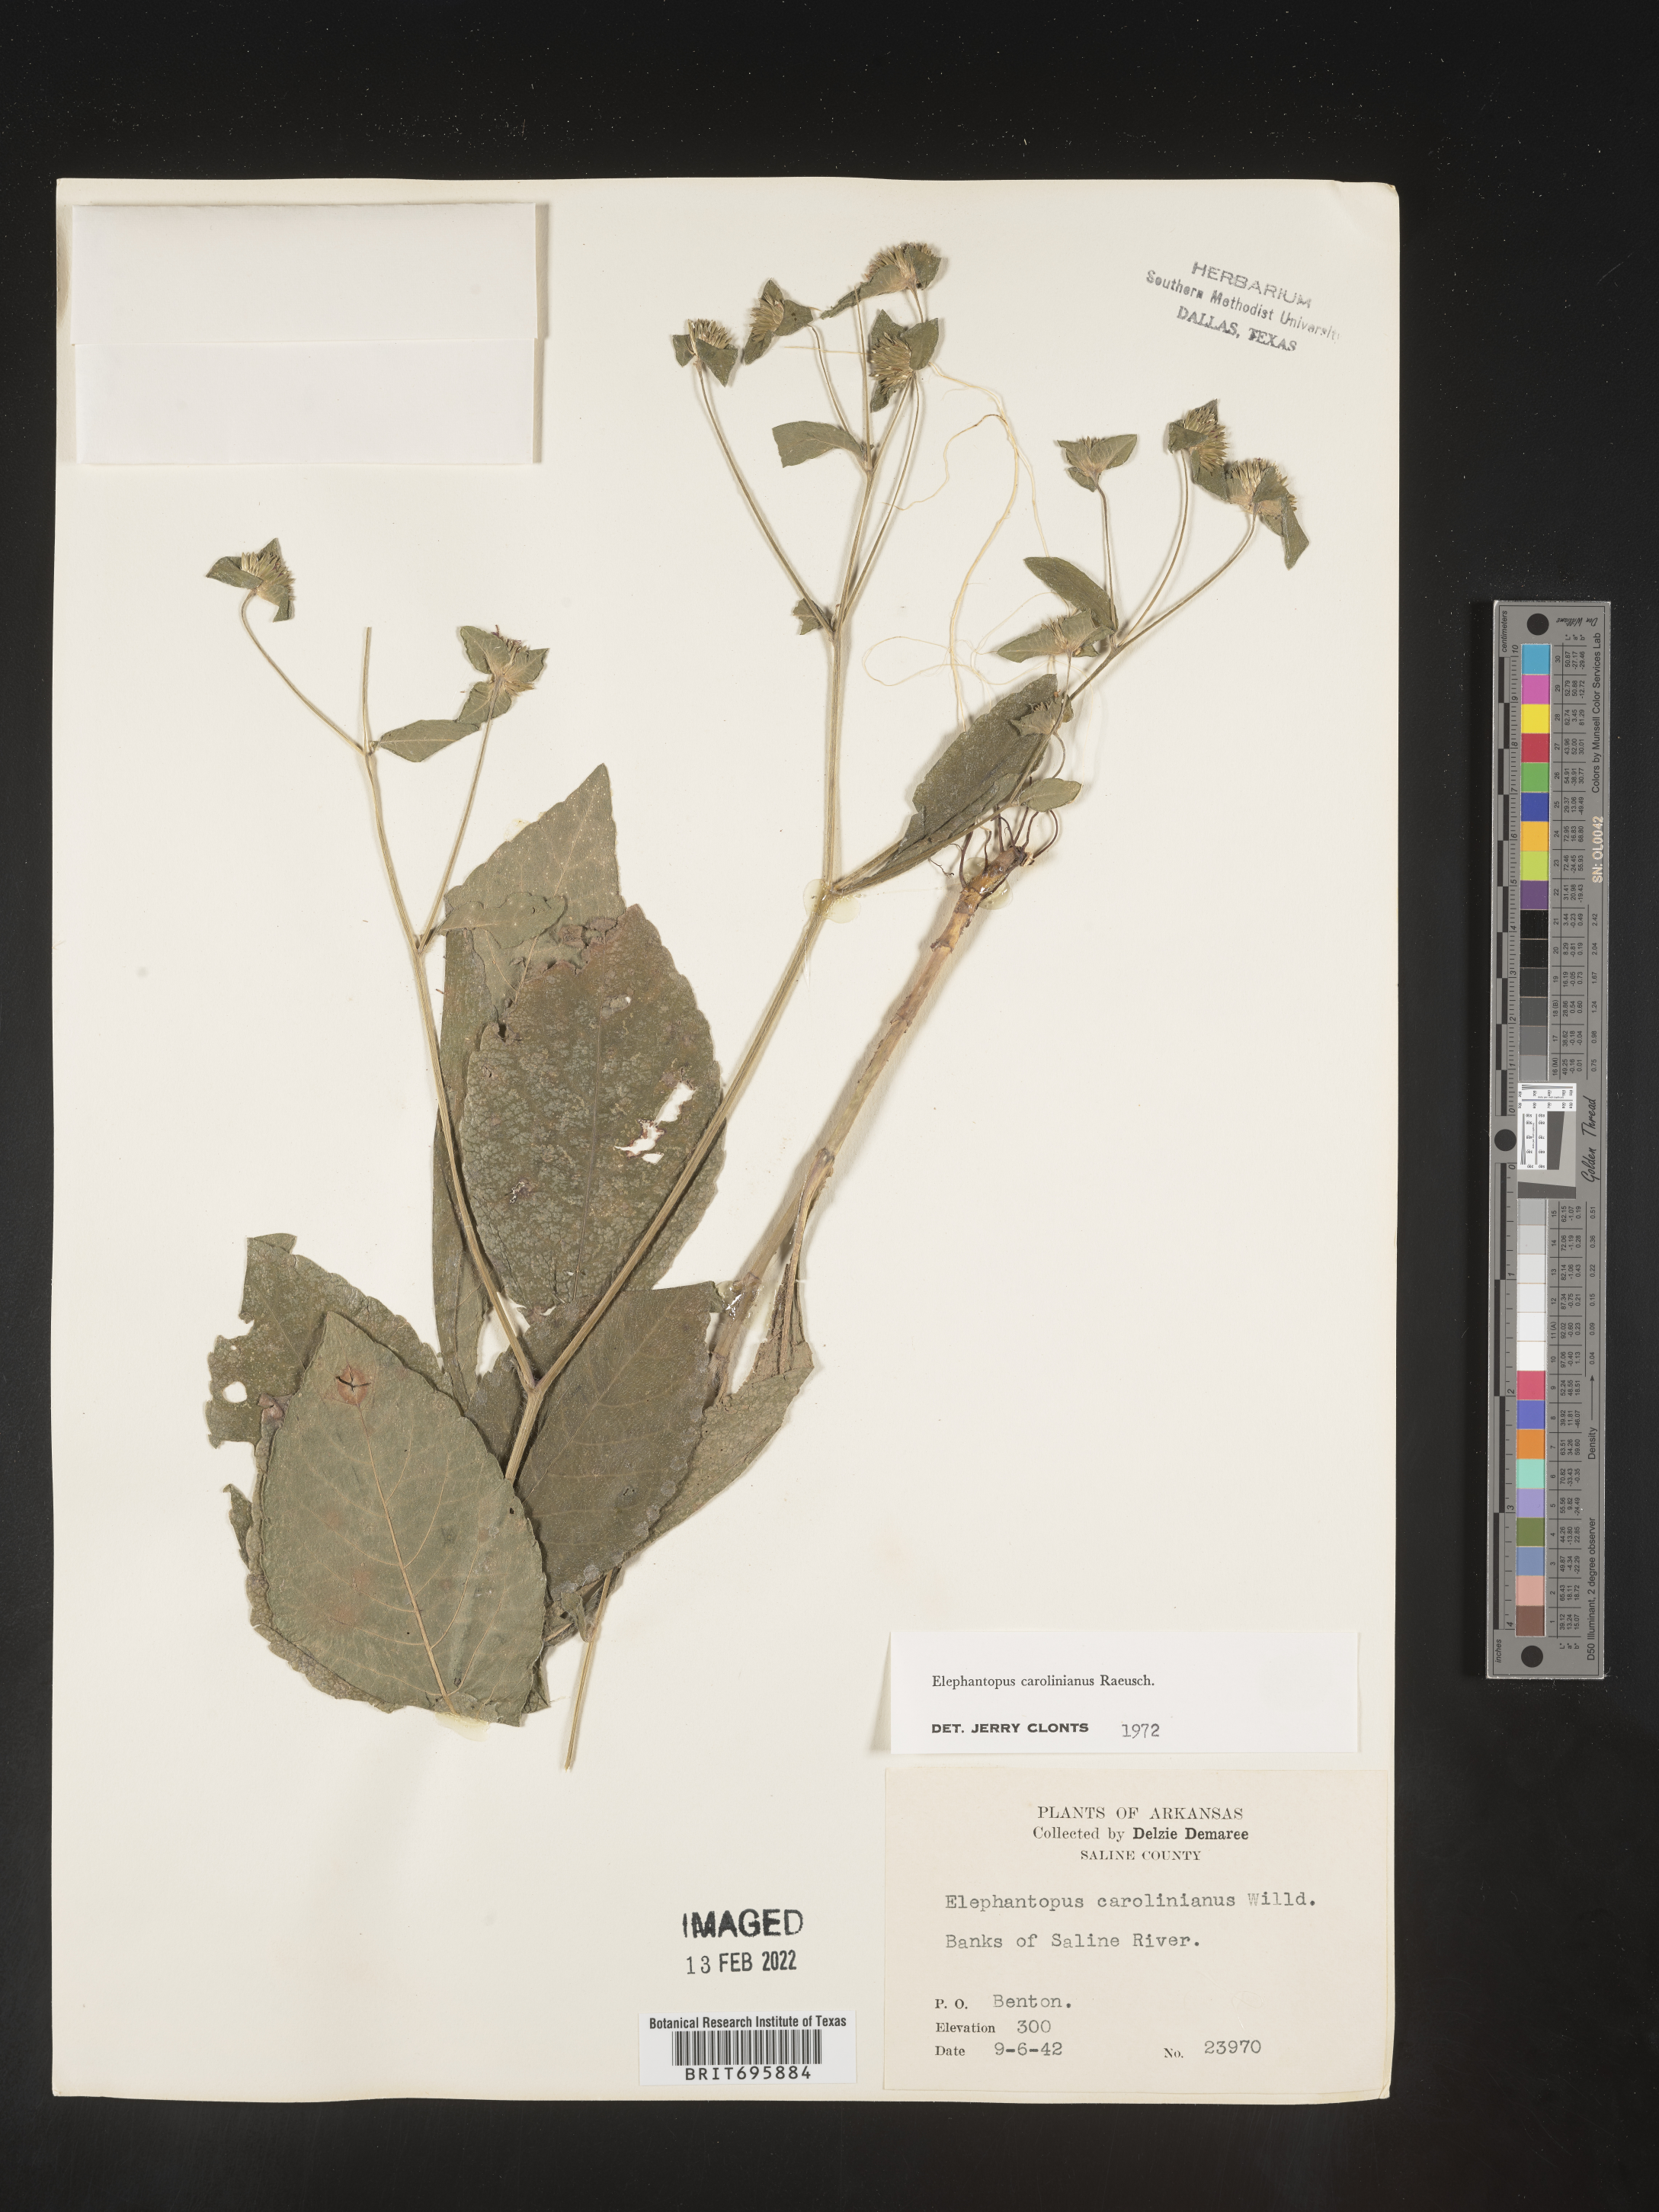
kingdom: Plantae
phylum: Tracheophyta
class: Magnoliopsida
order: Asterales
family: Asteraceae
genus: Elephantopus
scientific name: Elephantopus carolinianus
